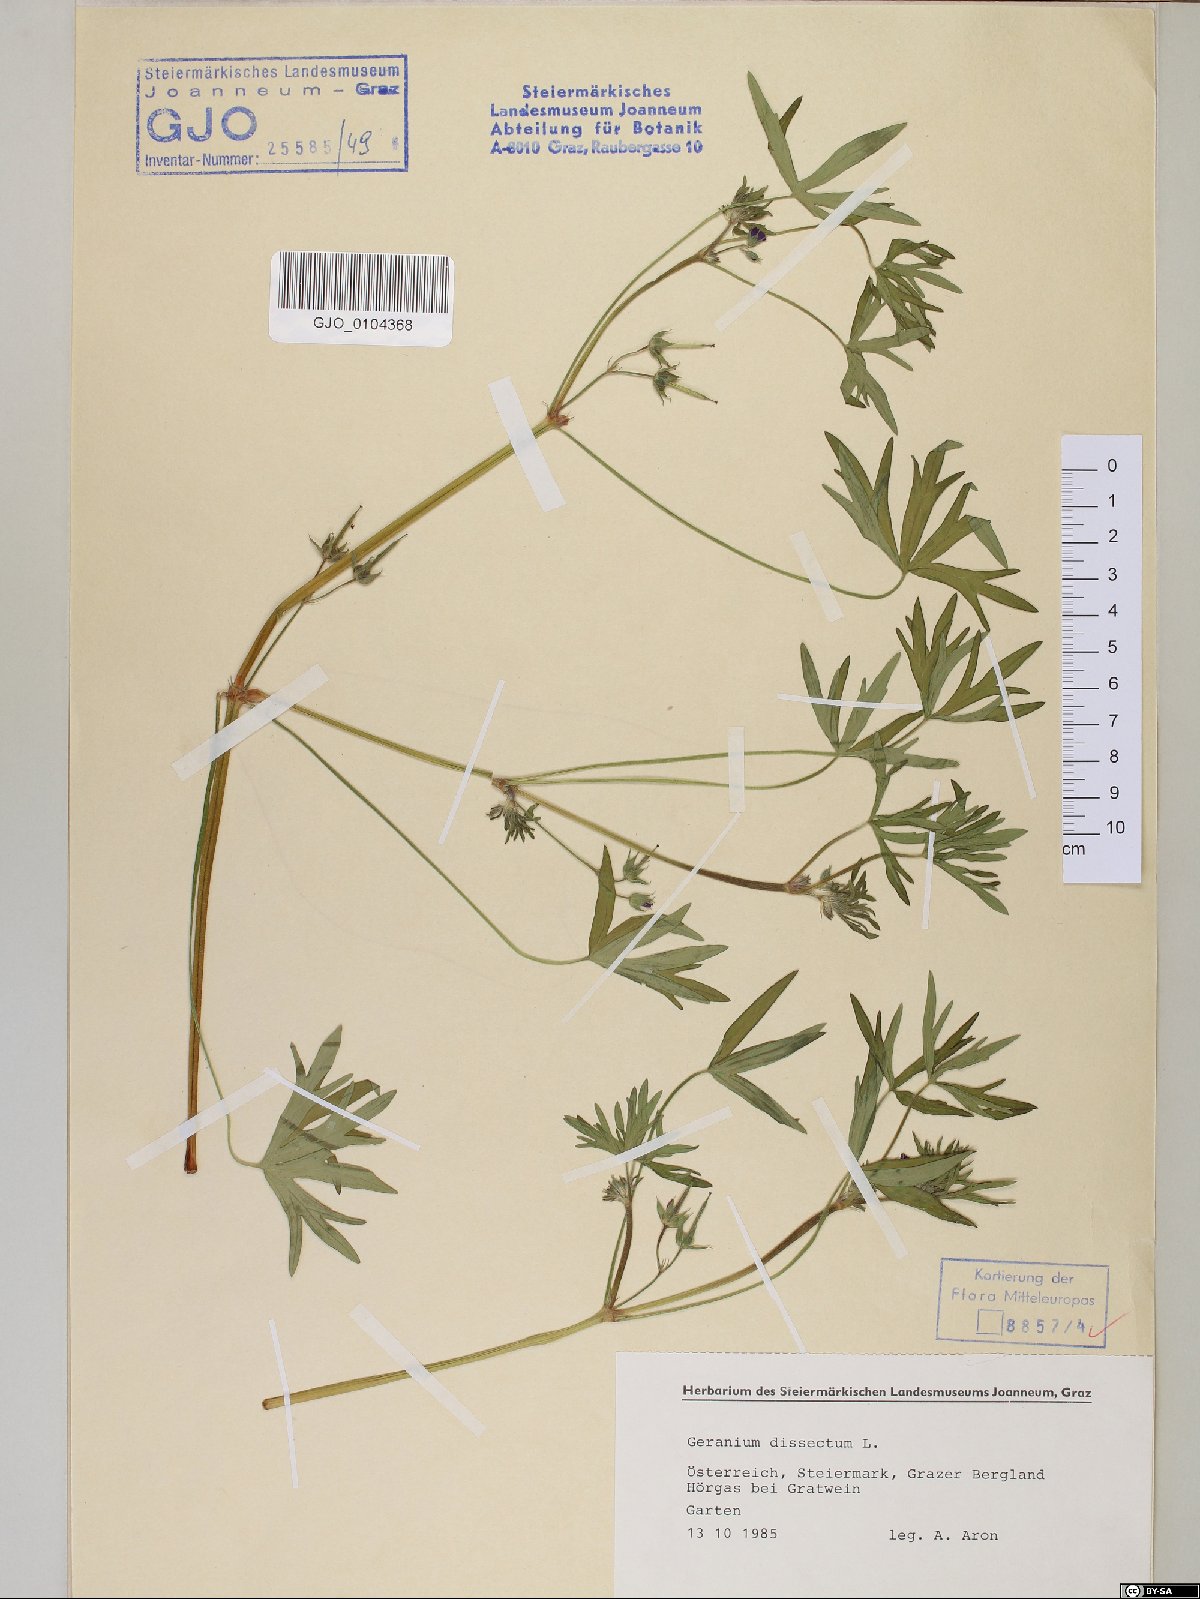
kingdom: Plantae
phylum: Tracheophyta
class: Magnoliopsida
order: Geraniales
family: Geraniaceae
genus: Geranium
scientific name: Geranium dissectum
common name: Cut-leaved crane's-bill
